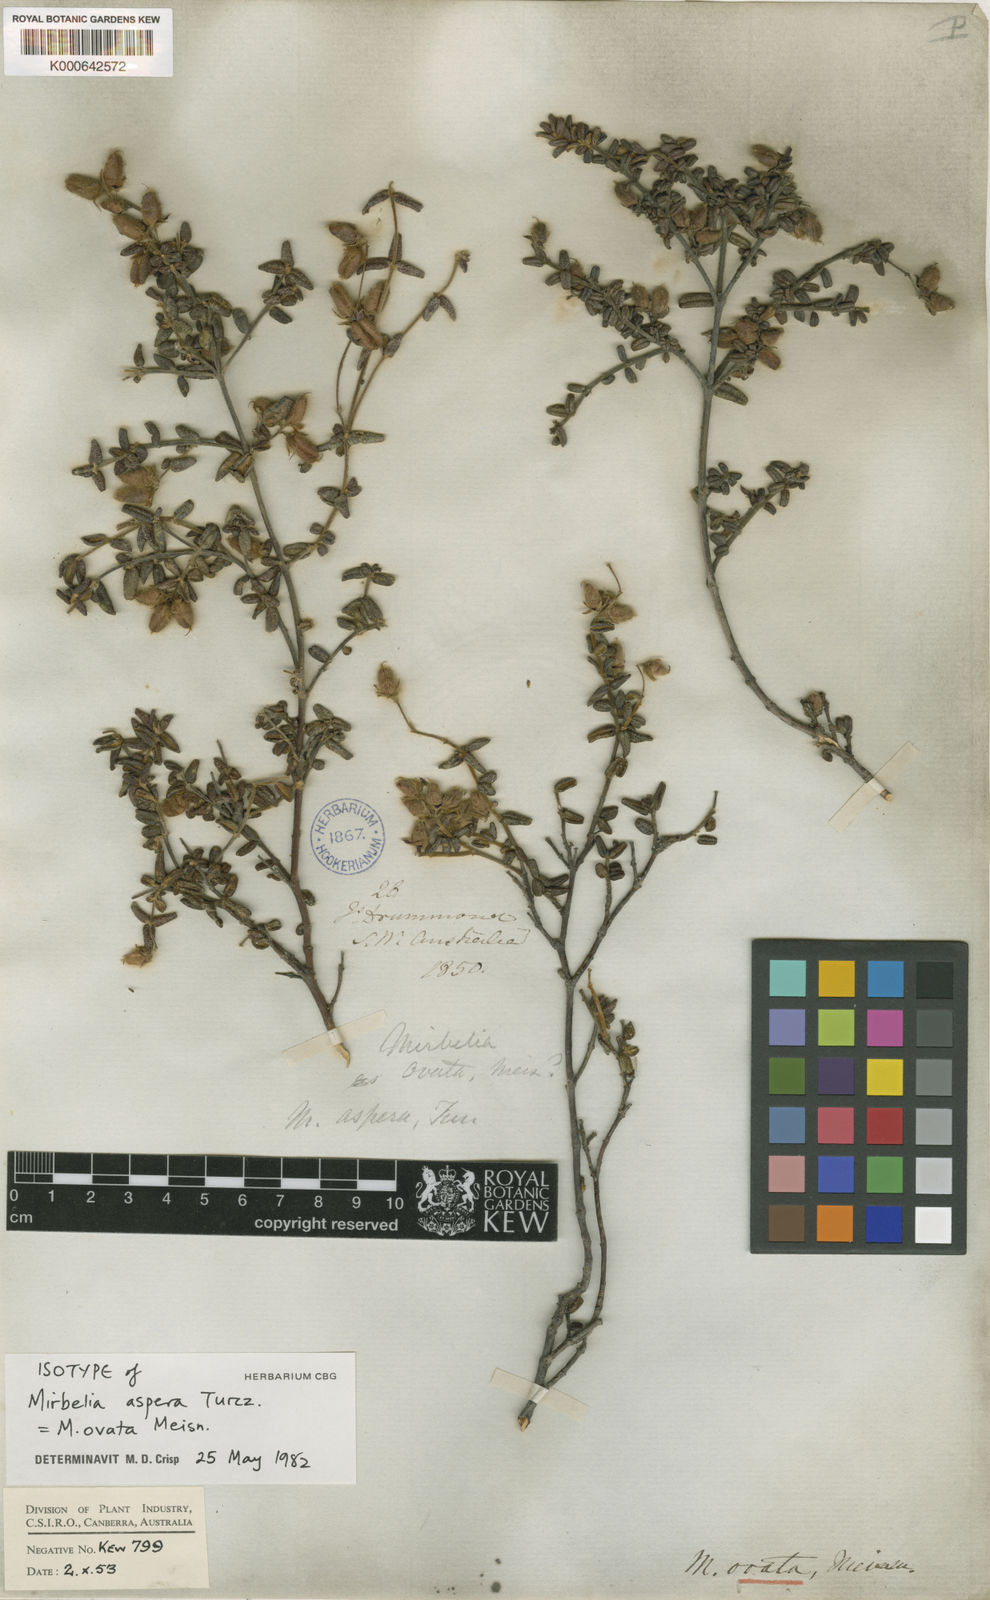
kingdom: Plantae
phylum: Tracheophyta
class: Magnoliopsida
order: Fabales
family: Fabaceae
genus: Mirbelia
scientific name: Mirbelia ovata
